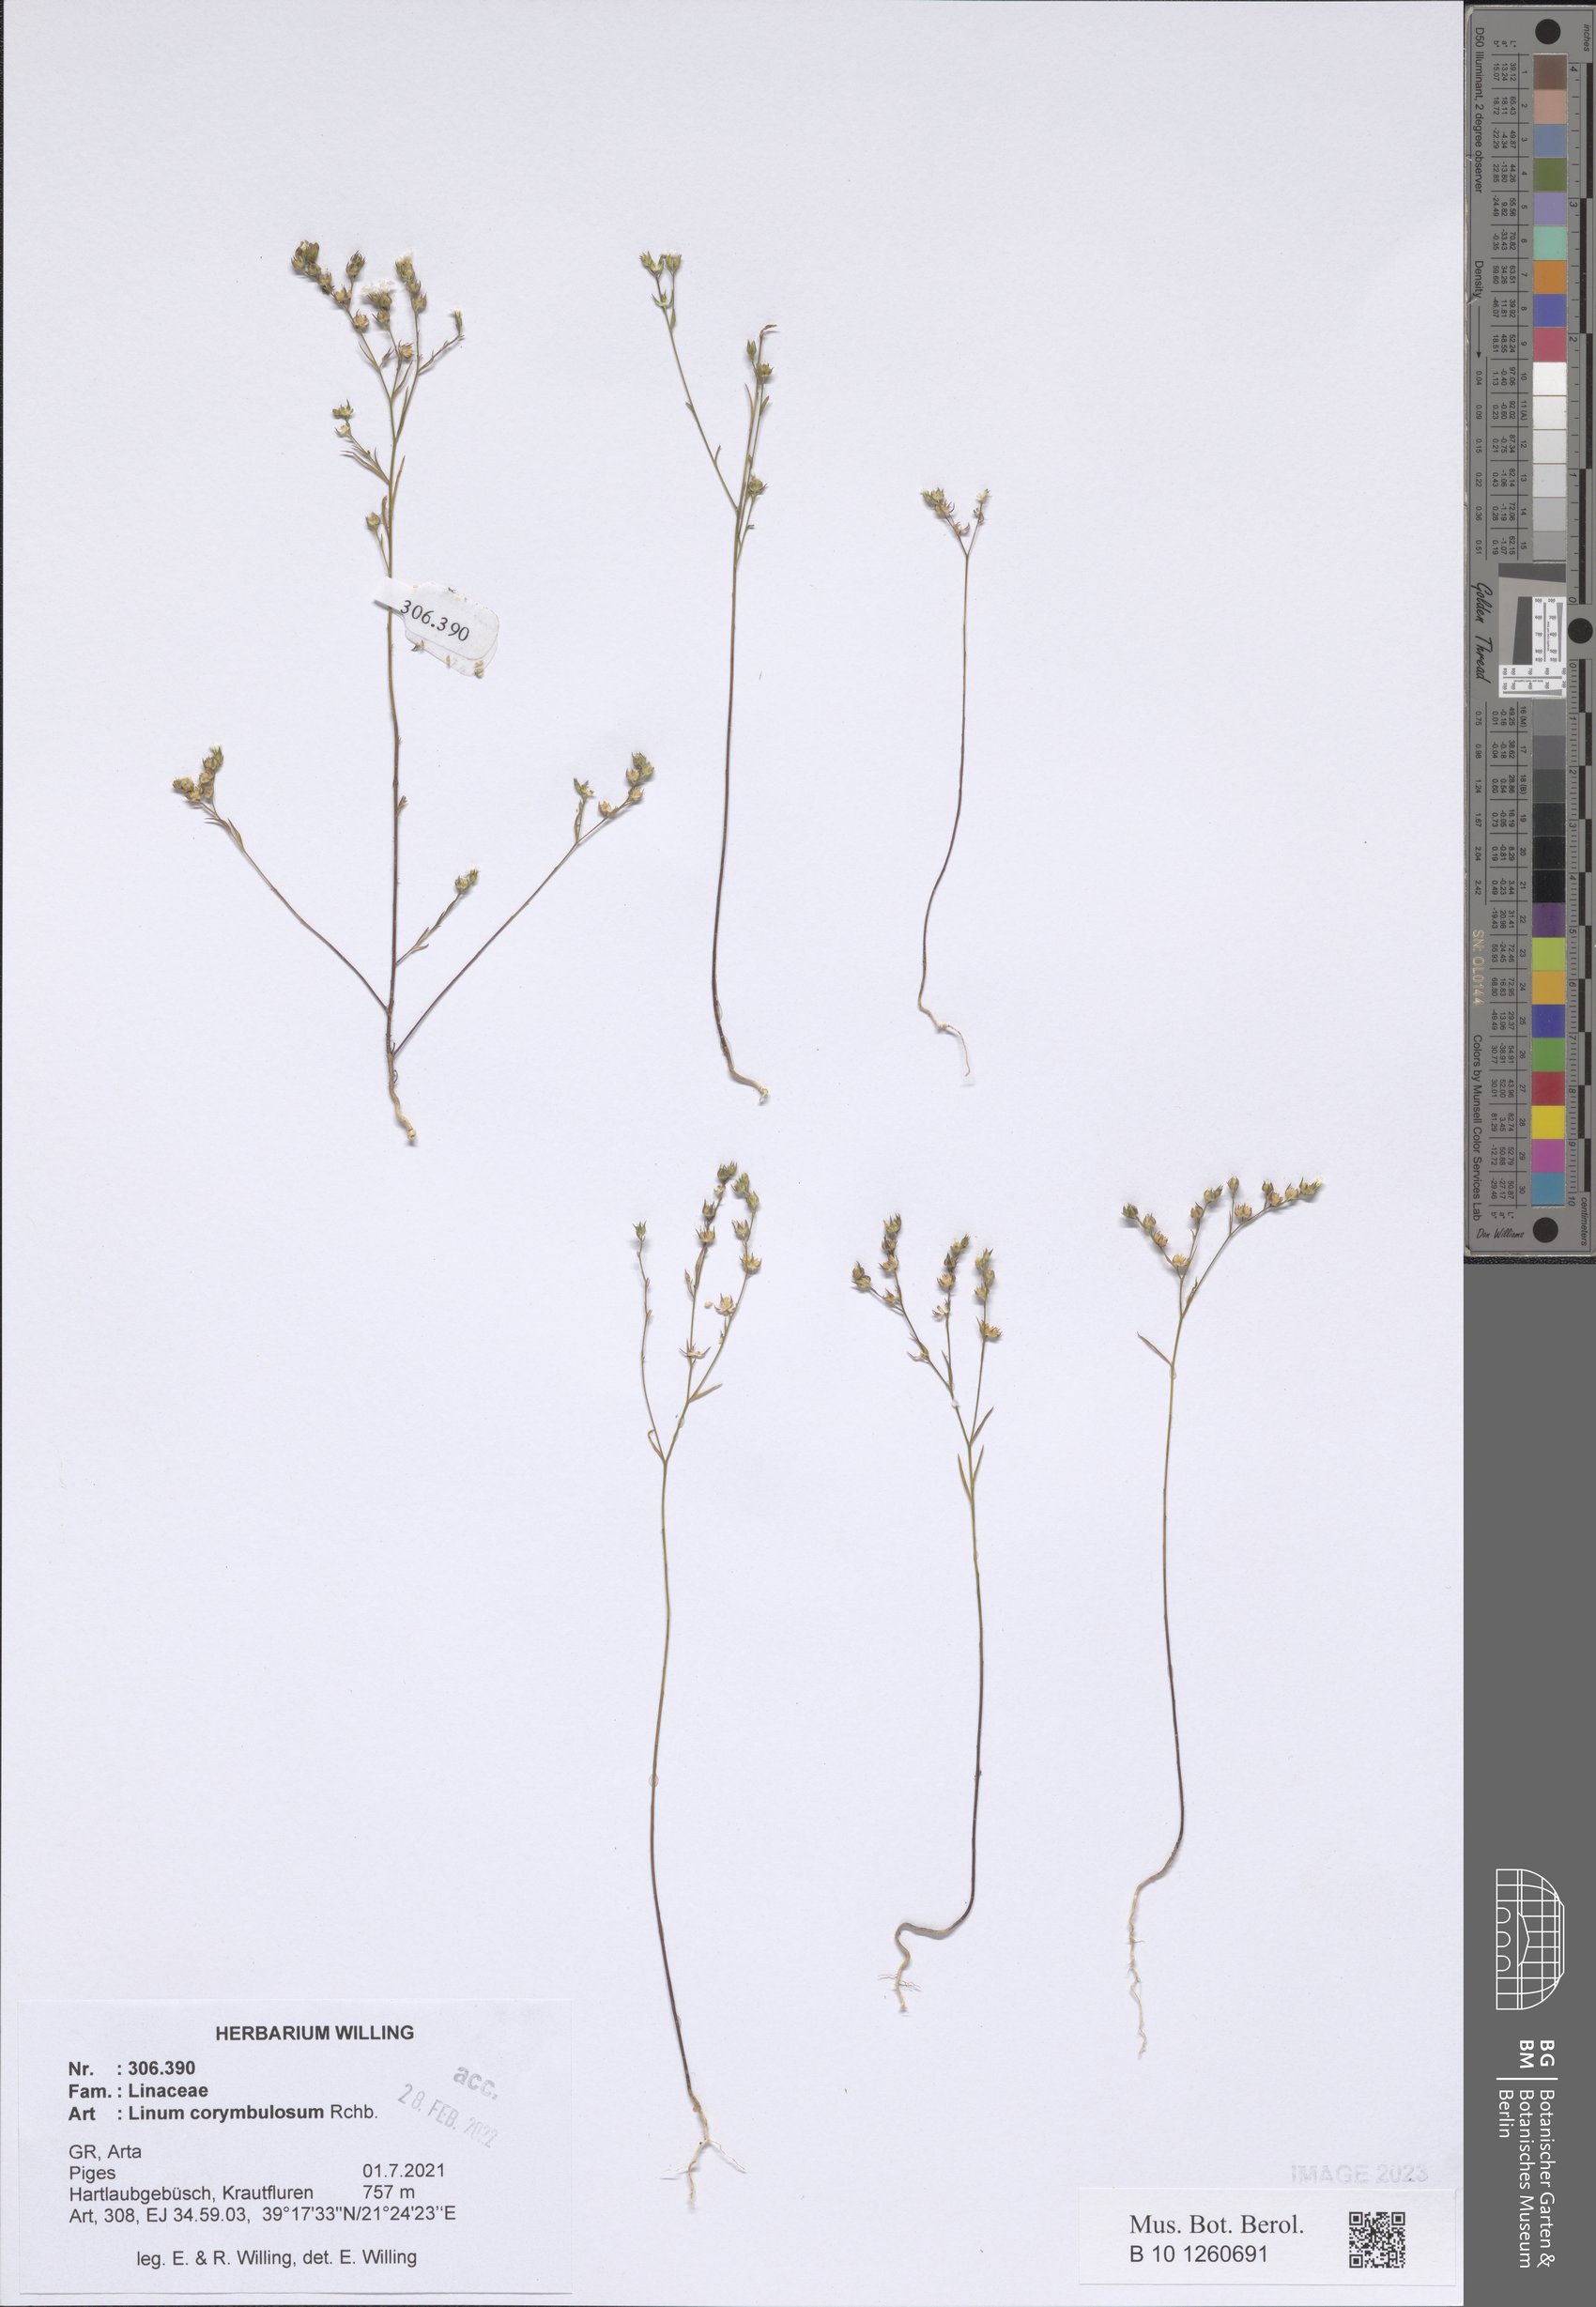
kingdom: Plantae
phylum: Tracheophyta
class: Magnoliopsida
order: Malpighiales
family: Linaceae
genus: Linum
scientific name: Linum corymbulosum
